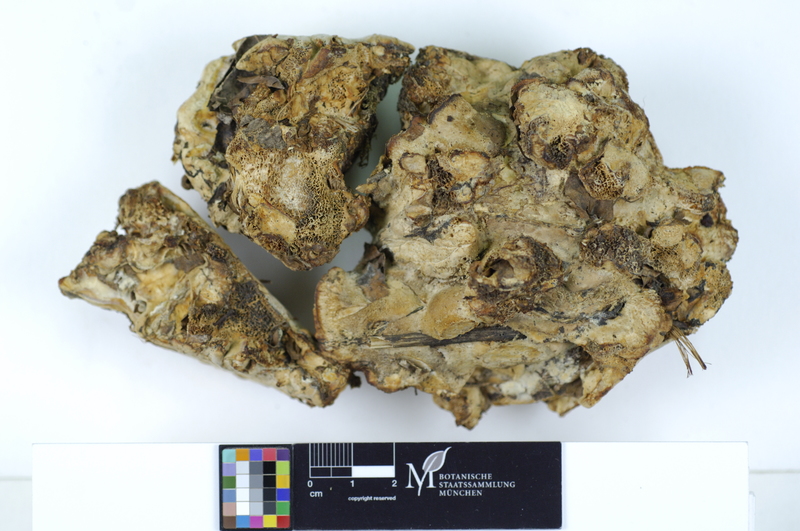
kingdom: Plantae
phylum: Tracheophyta
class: Magnoliopsida
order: Malpighiales
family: Salicaceae
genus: Populus
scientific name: Populus
